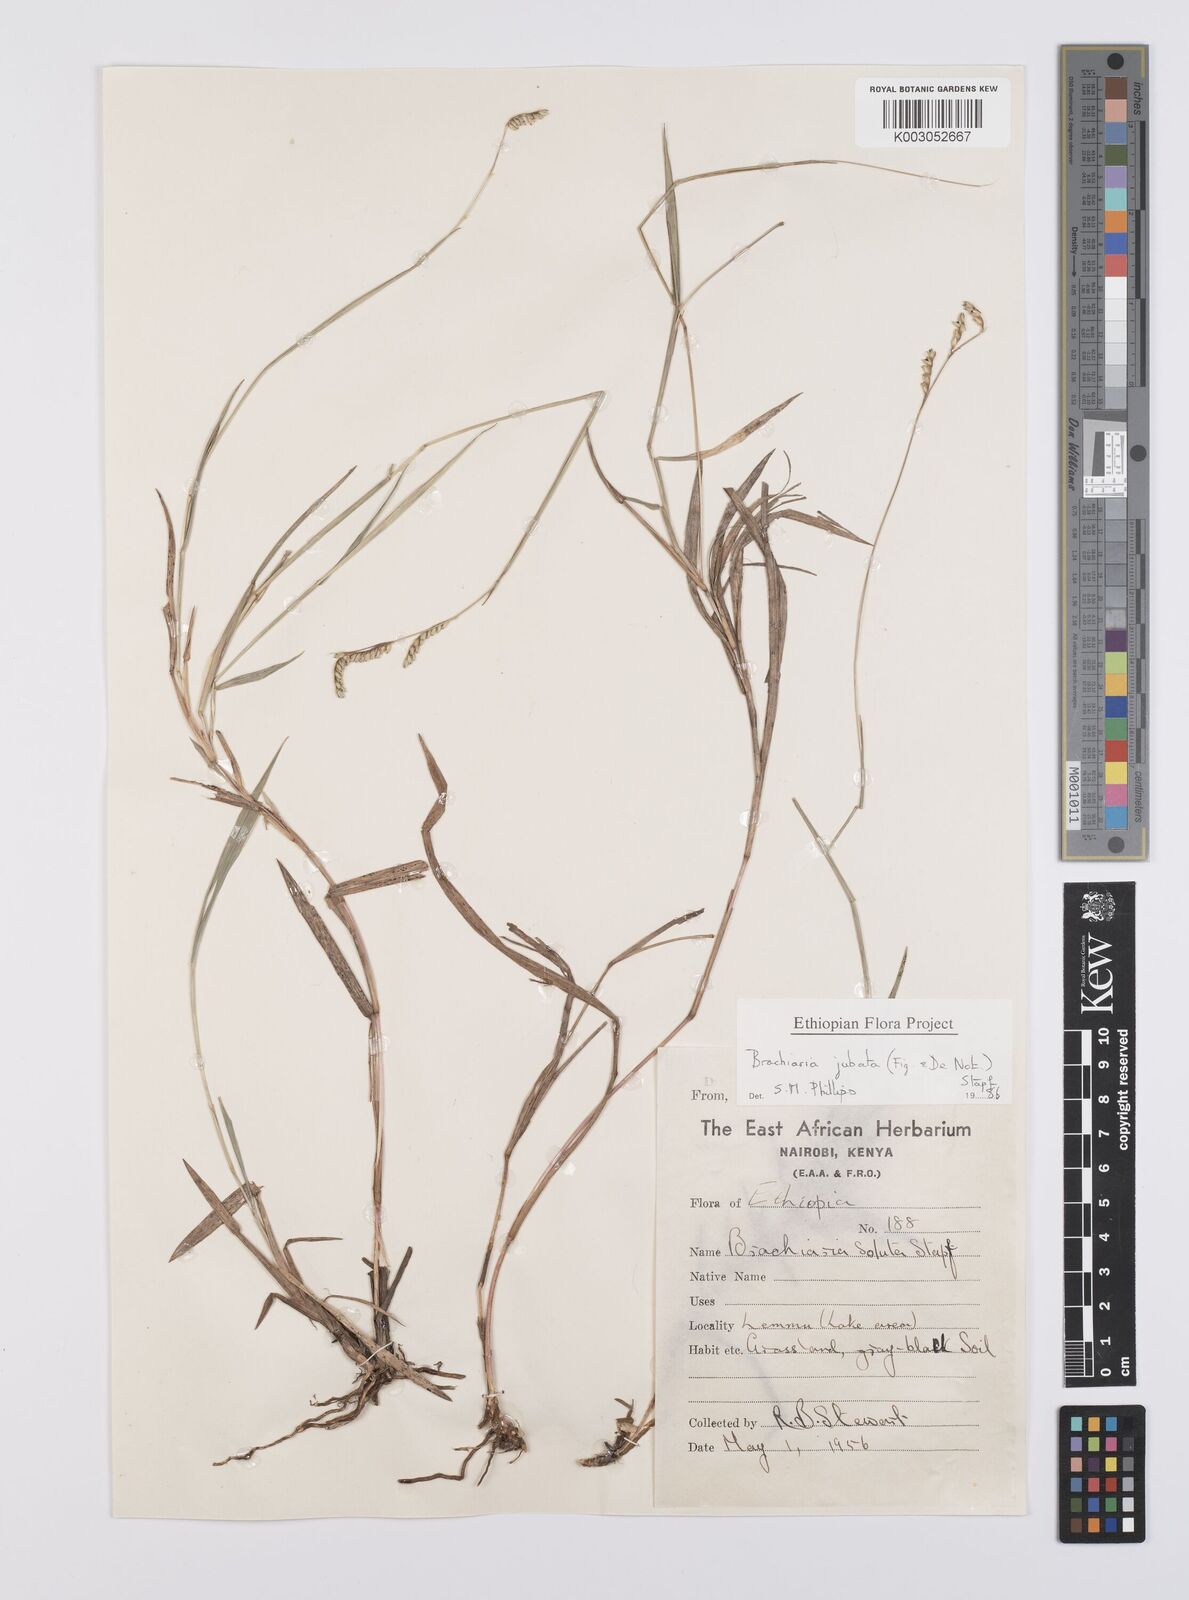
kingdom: Plantae
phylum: Tracheophyta
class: Liliopsida
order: Poales
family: Poaceae
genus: Urochloa
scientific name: Urochloa jubata
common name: Buffalograss
